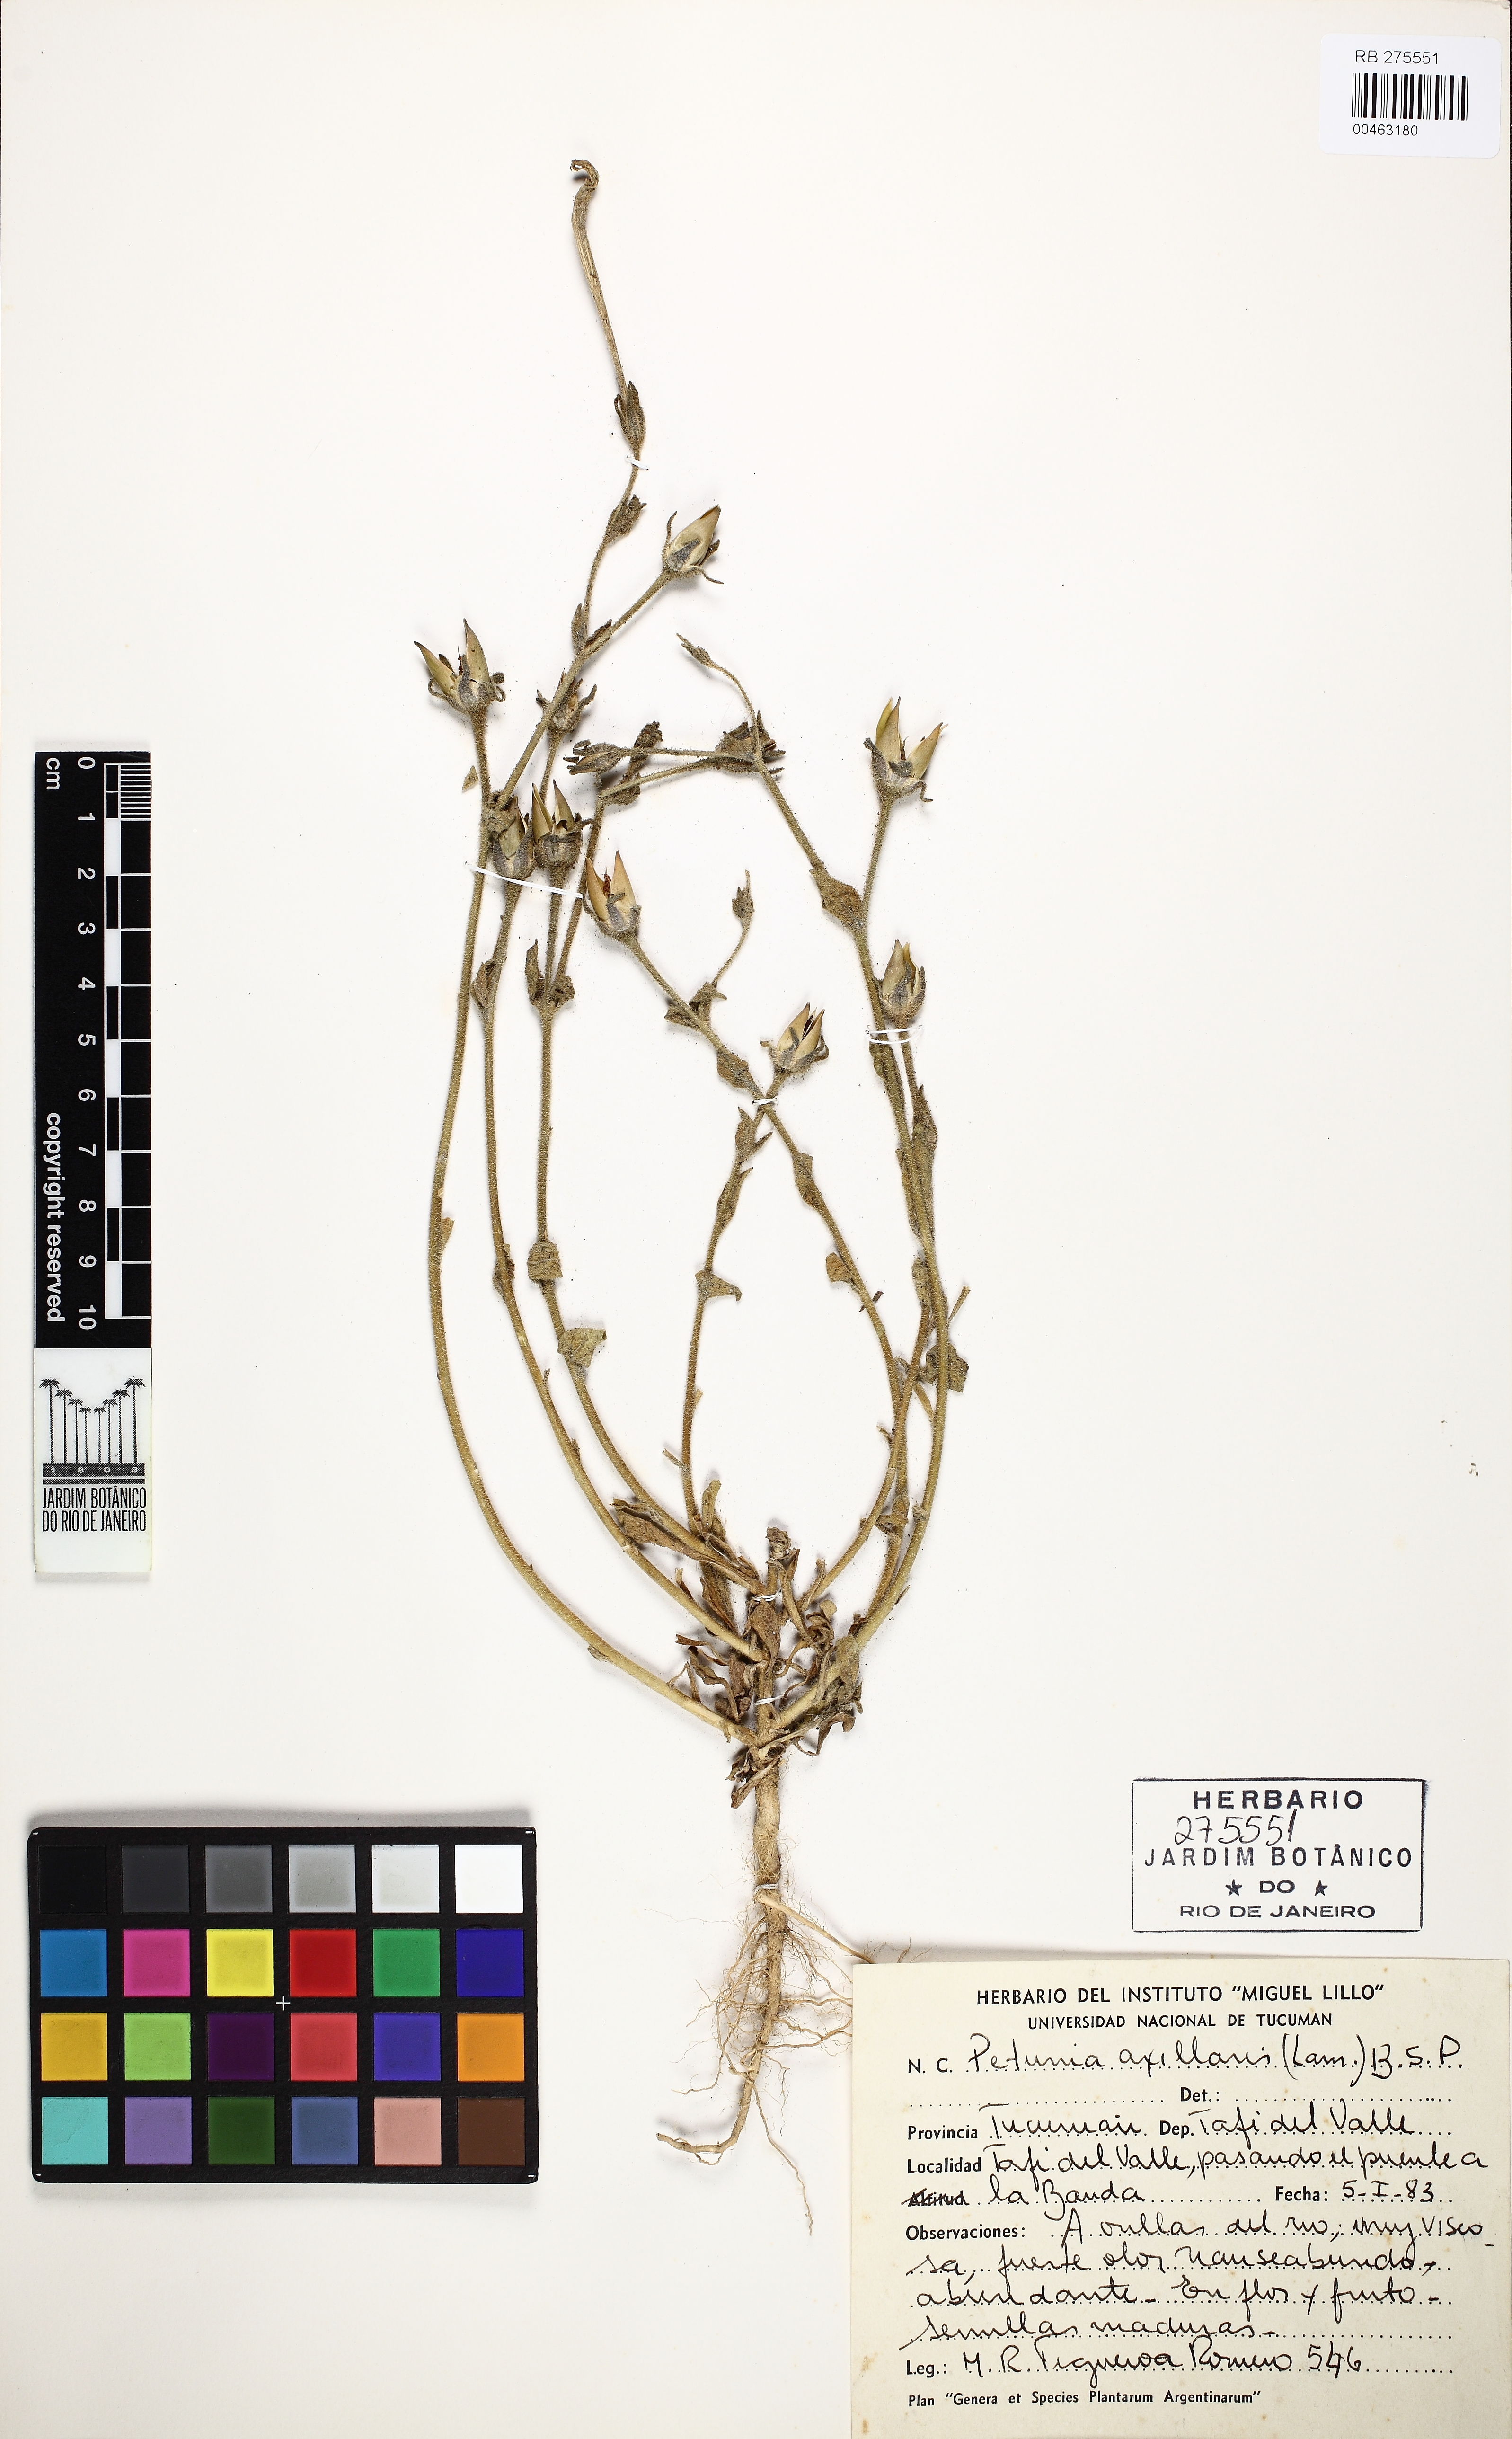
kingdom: Plantae
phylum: Tracheophyta
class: Magnoliopsida
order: Solanales
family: Solanaceae
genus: Petunia
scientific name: Petunia axillaris
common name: Large white petunia
